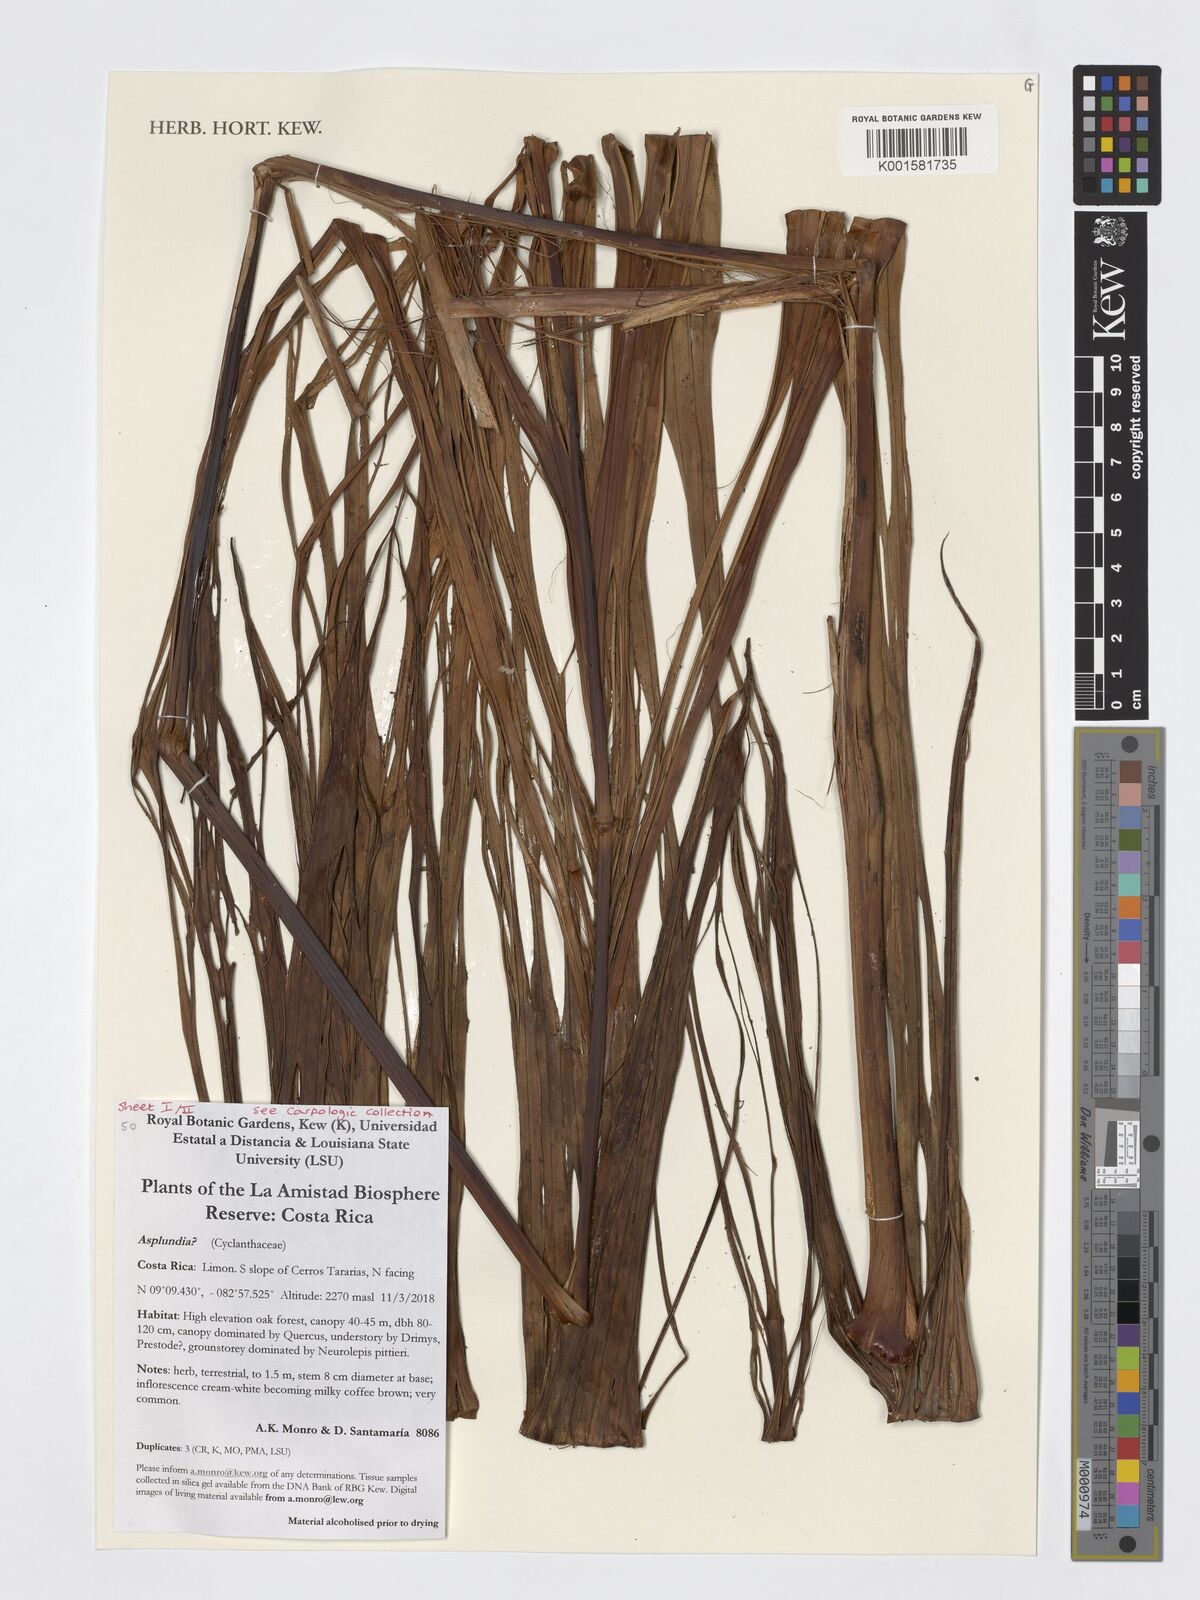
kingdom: Plantae
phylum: Tracheophyta
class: Liliopsida
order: Pandanales
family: Cyclanthaceae
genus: Asplundia
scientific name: Asplundia
